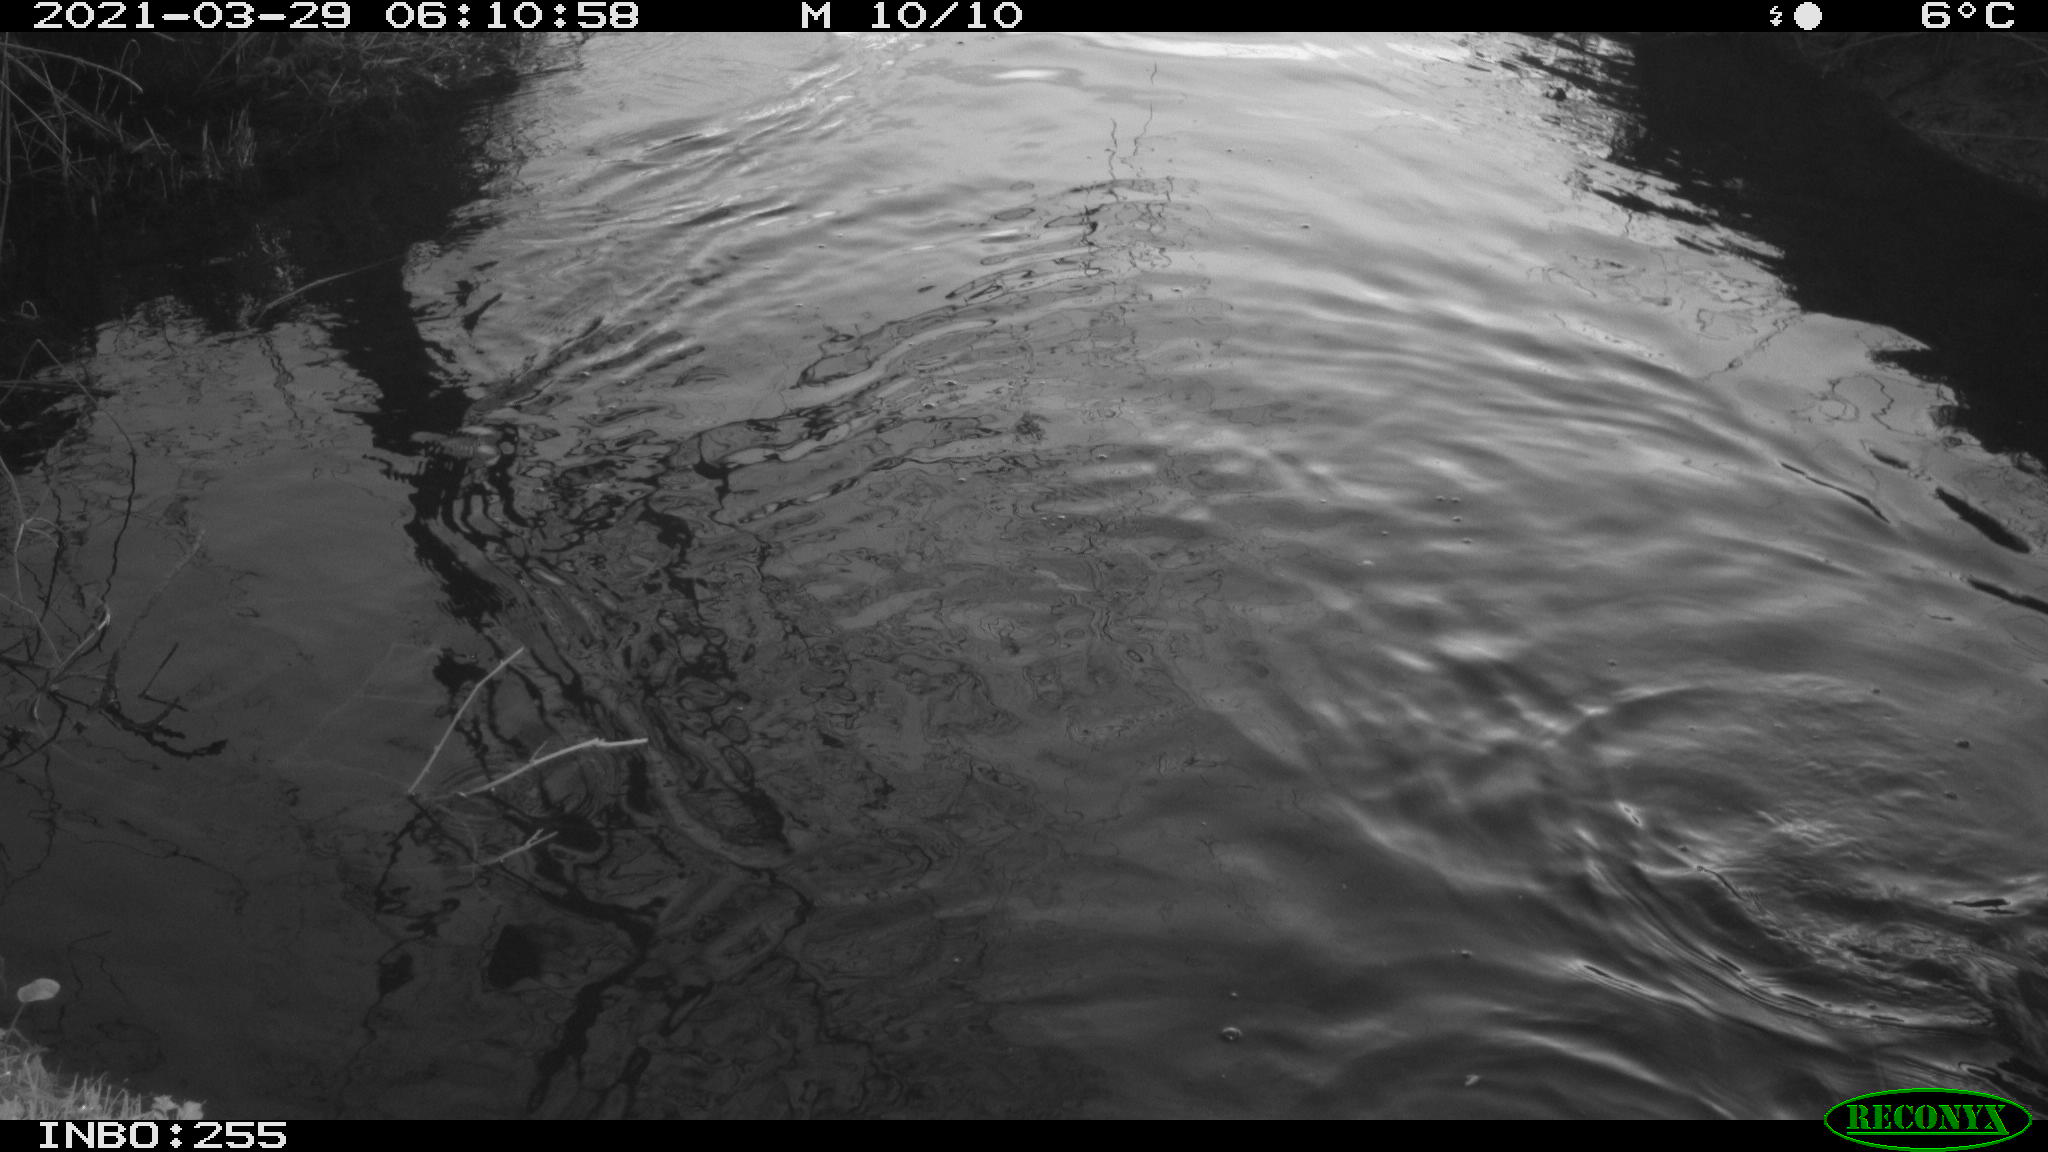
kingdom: Animalia
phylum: Chordata
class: Aves
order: Anseriformes
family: Anatidae
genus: Anas
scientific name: Anas platyrhynchos
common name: Mallard
